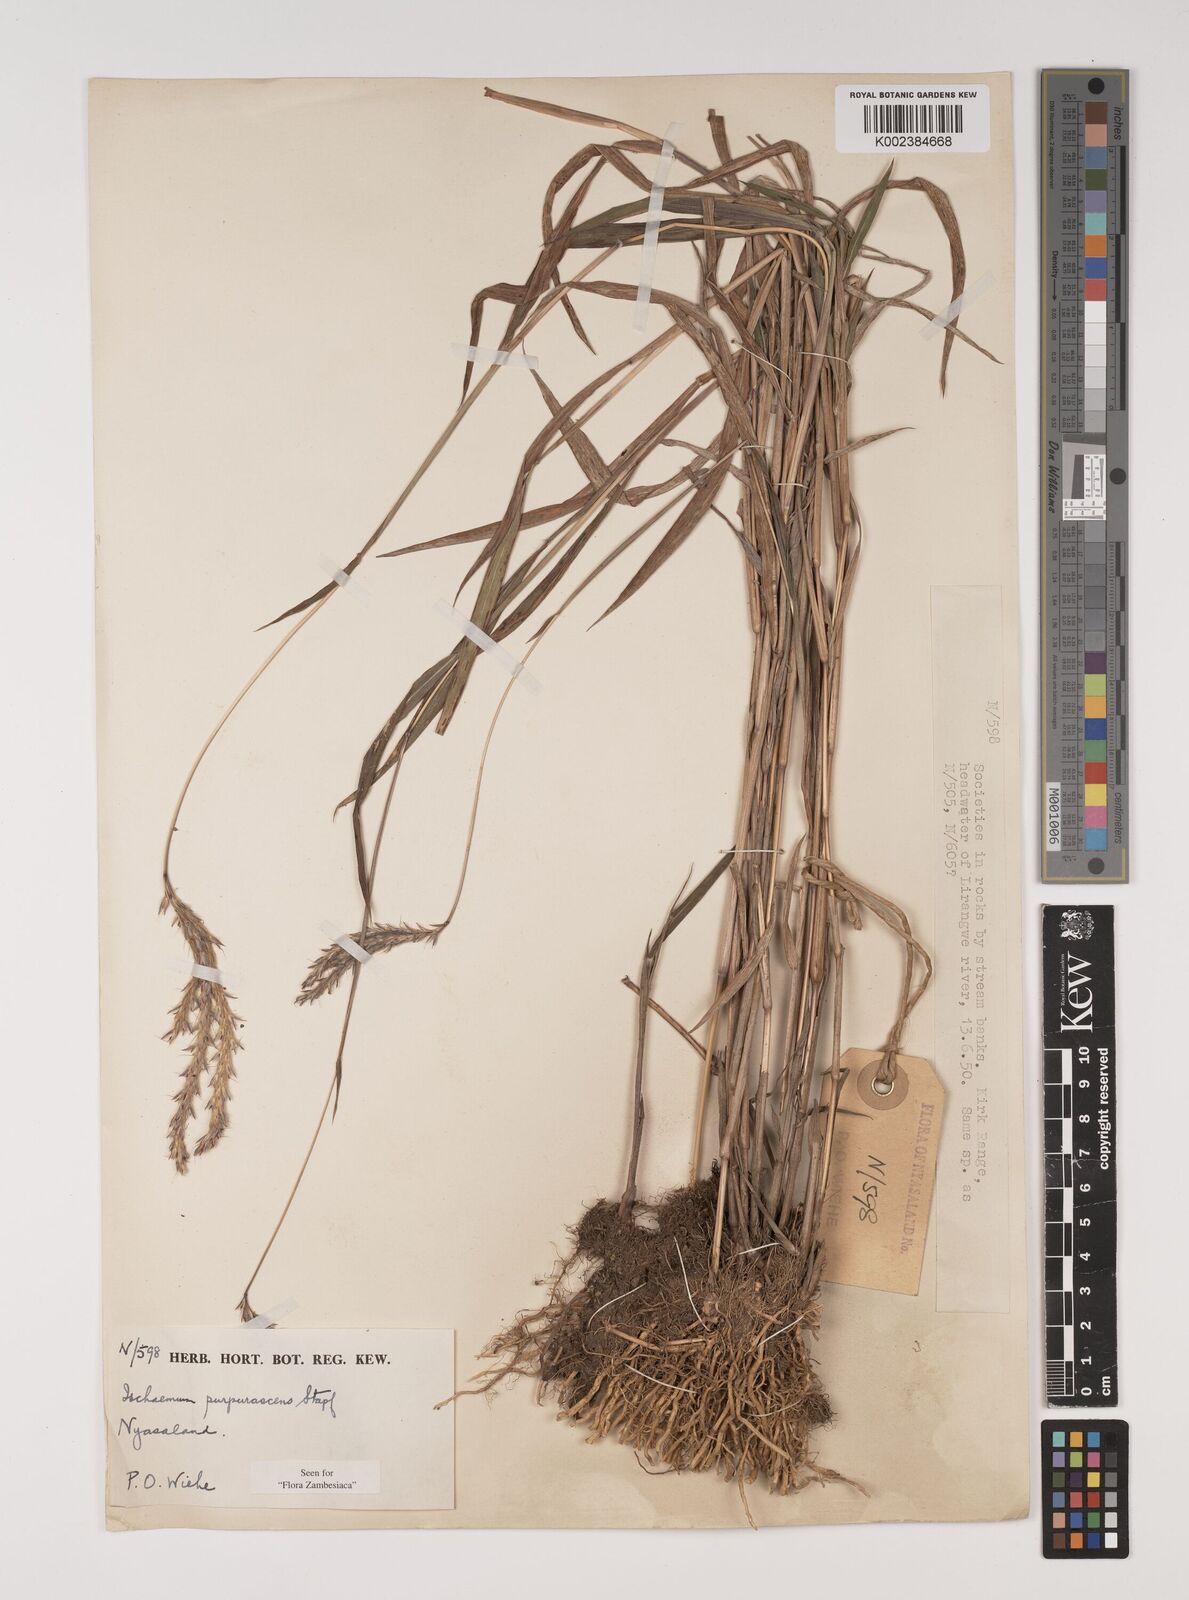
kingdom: Plantae
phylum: Tracheophyta
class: Liliopsida
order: Poales
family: Poaceae
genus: Ischaemum
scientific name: Ischaemum
